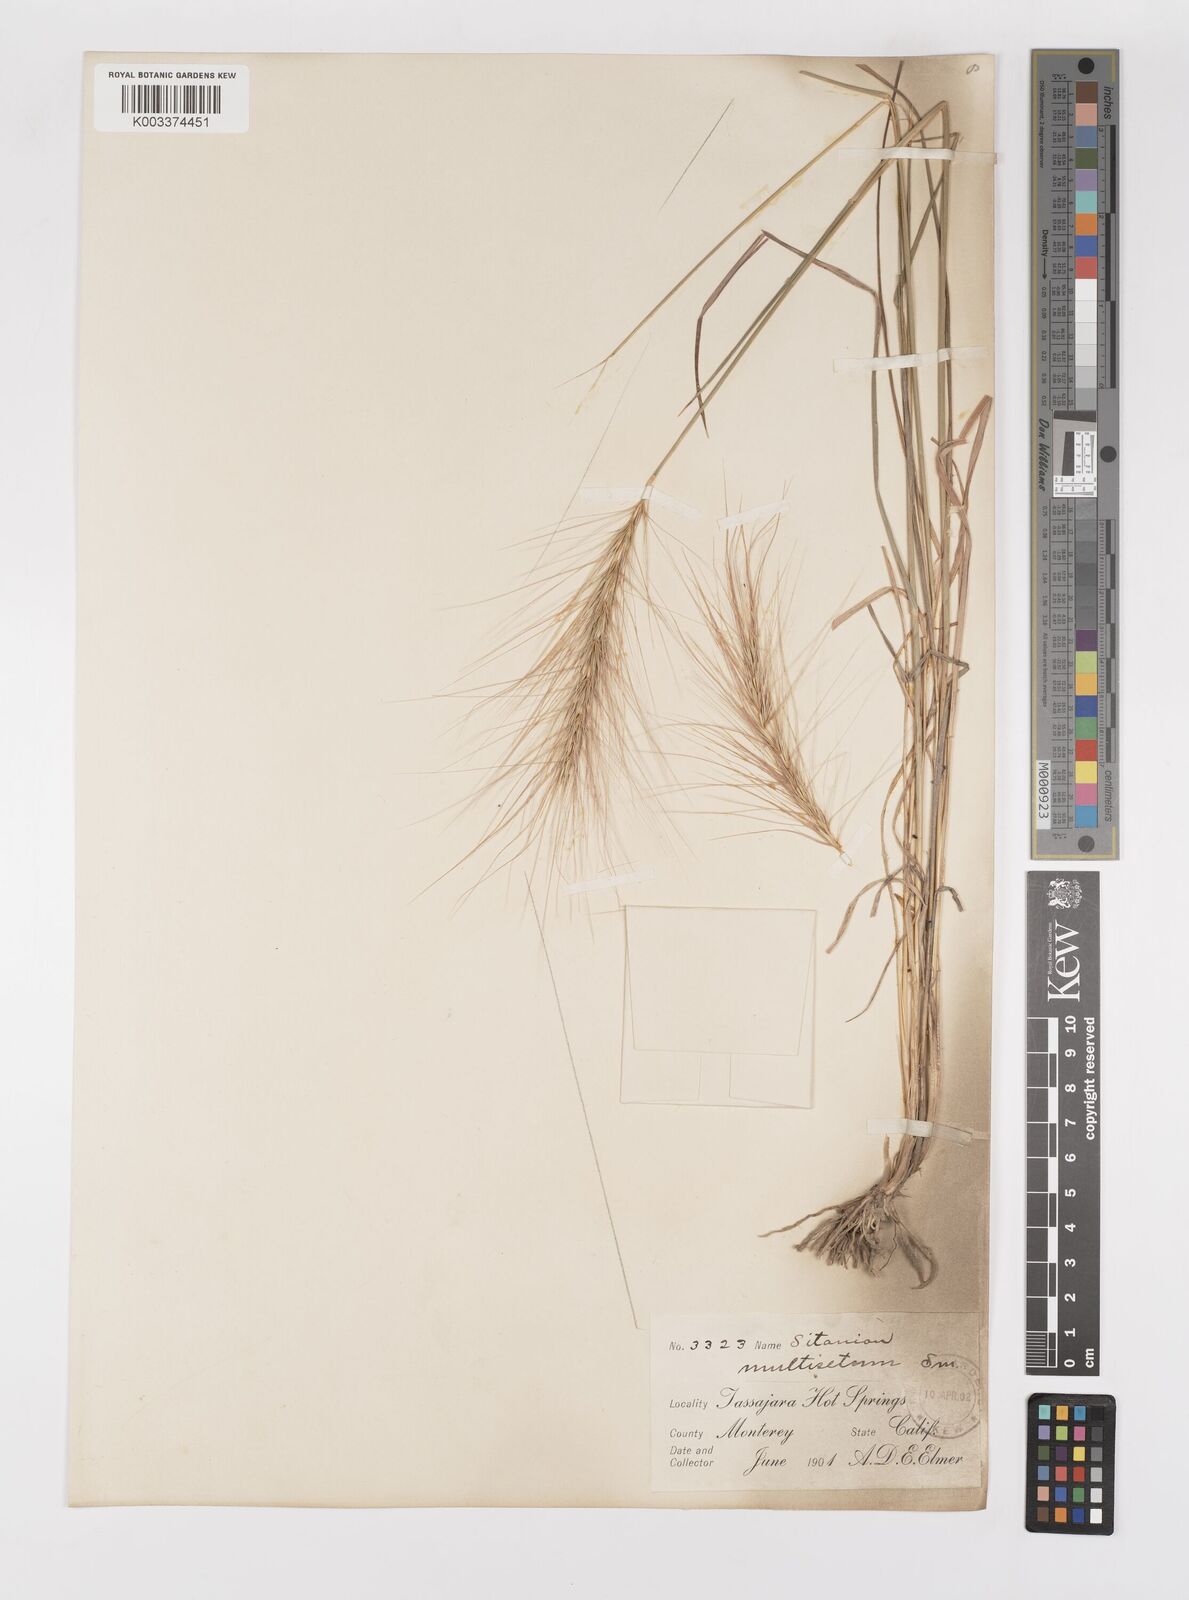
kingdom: Plantae
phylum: Tracheophyta
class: Liliopsida
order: Poales
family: Poaceae
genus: Elymus
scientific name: Elymus multisetus
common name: Big squirreltail
